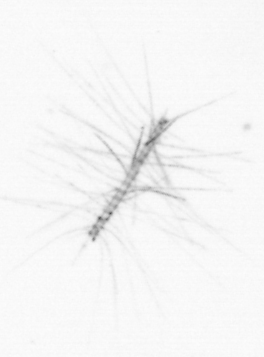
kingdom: Chromista
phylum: Ochrophyta
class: Bacillariophyceae
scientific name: Bacillariophyceae
